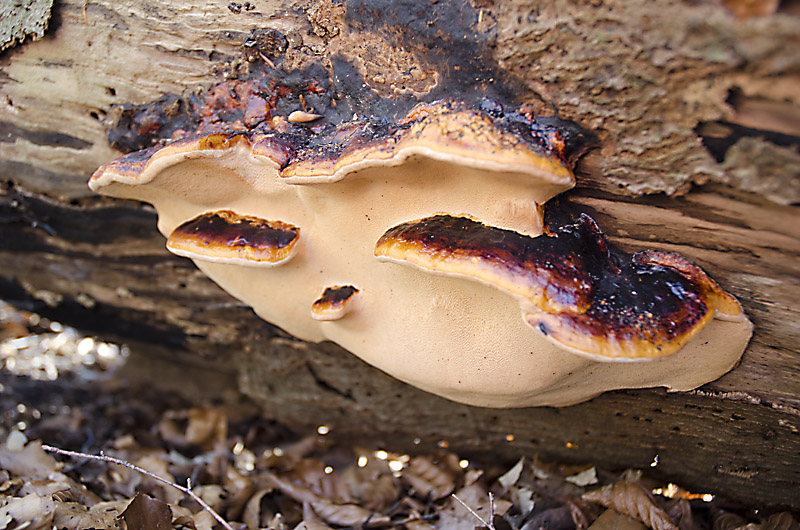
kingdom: Fungi
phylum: Basidiomycota
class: Agaricomycetes
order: Polyporales
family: Fomitopsidaceae
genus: Fomitopsis
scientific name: Fomitopsis pinicola
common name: randbæltet hovporesvamp
